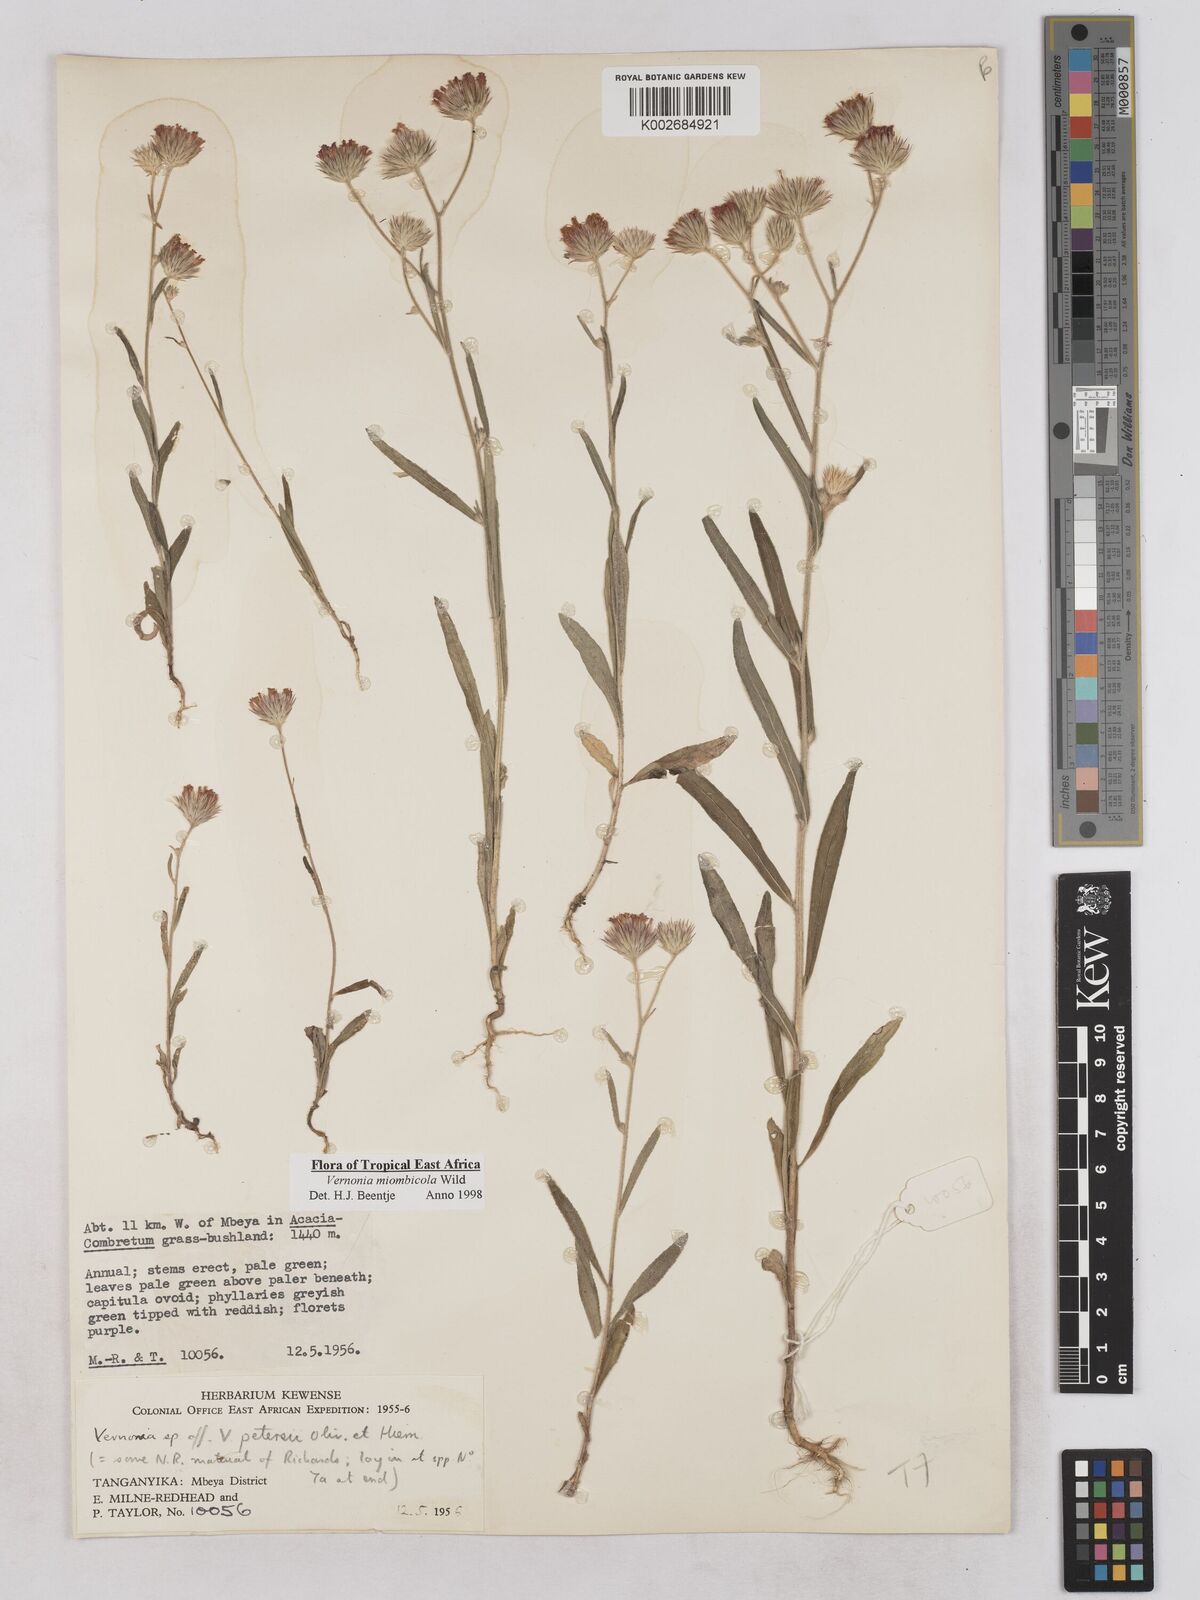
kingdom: Plantae
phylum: Tracheophyta
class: Magnoliopsida
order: Asterales
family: Asteraceae
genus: Vernonia
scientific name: Vernonia miombicola
